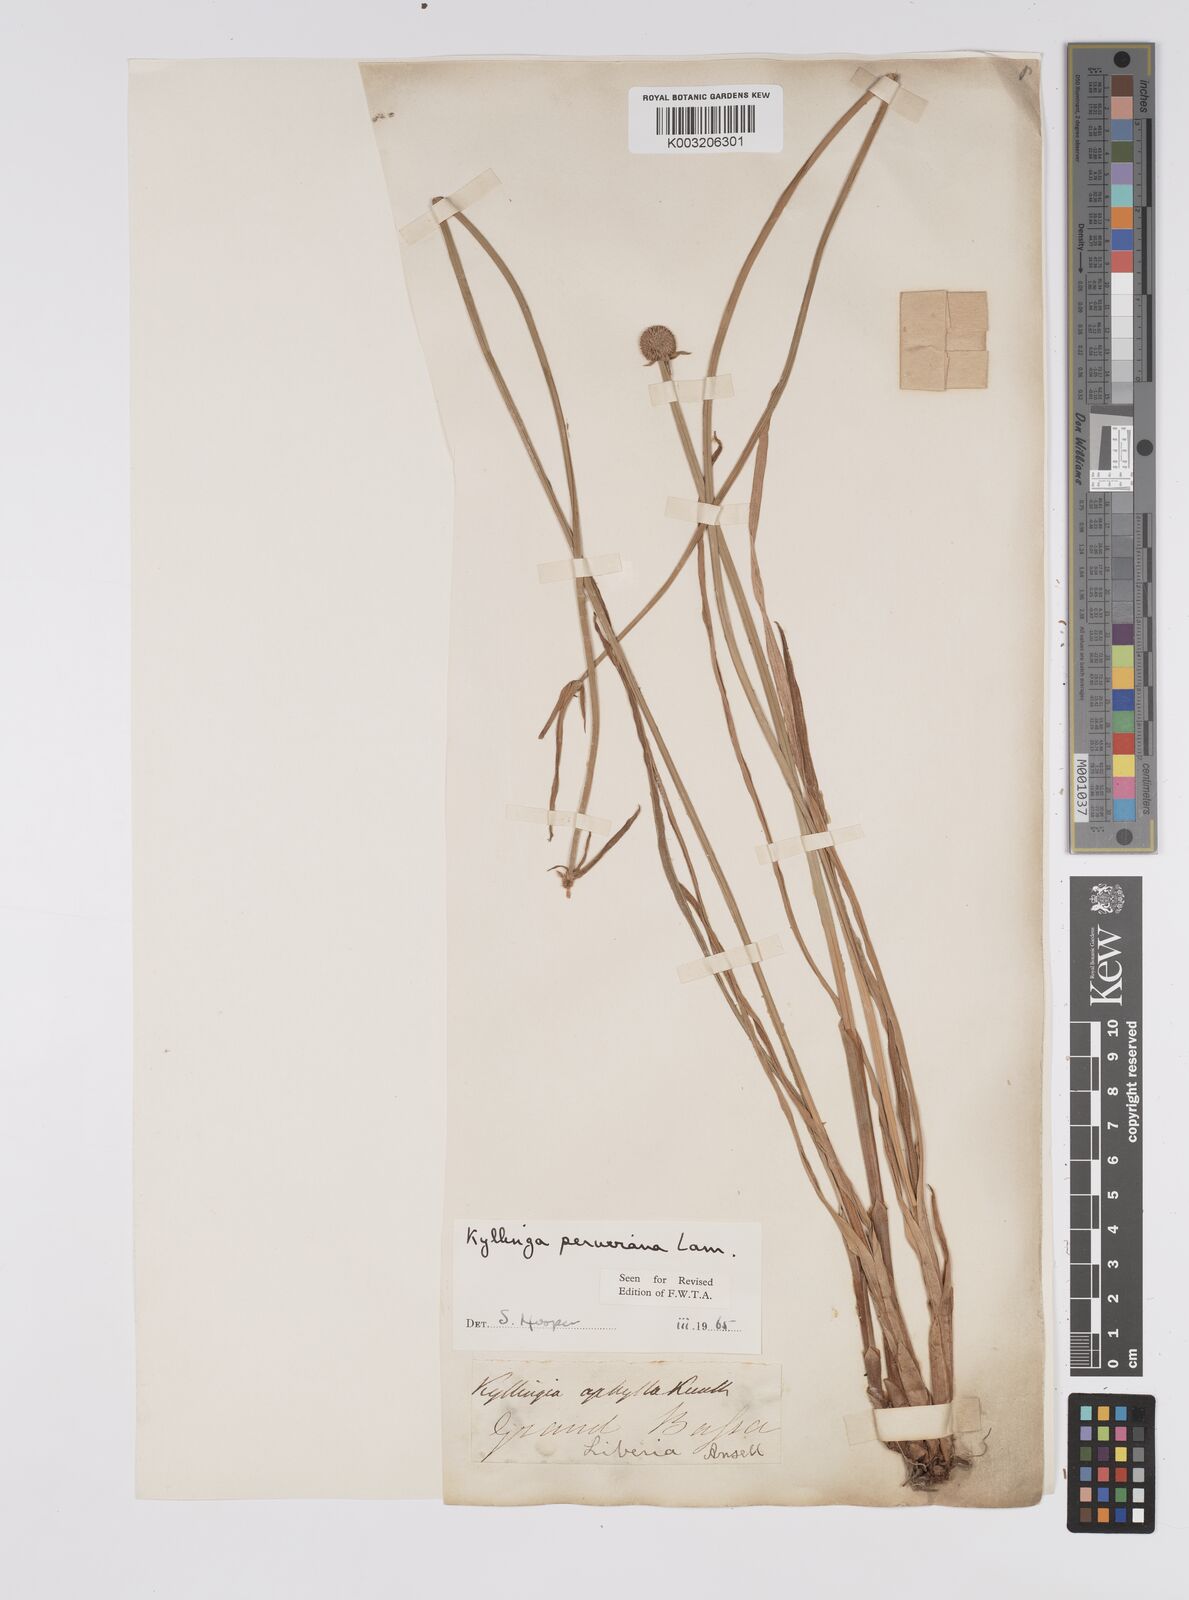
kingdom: Plantae
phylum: Tracheophyta
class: Liliopsida
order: Poales
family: Cyperaceae
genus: Cyperus
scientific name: Cyperus obtusatus
